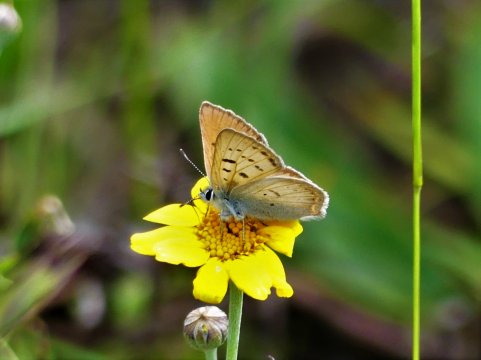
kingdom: Animalia
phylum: Arthropoda
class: Insecta
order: Lepidoptera
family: Lycaenidae
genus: Lycaena
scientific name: Lycaena nivalis
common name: Lilac-bordered Copper
